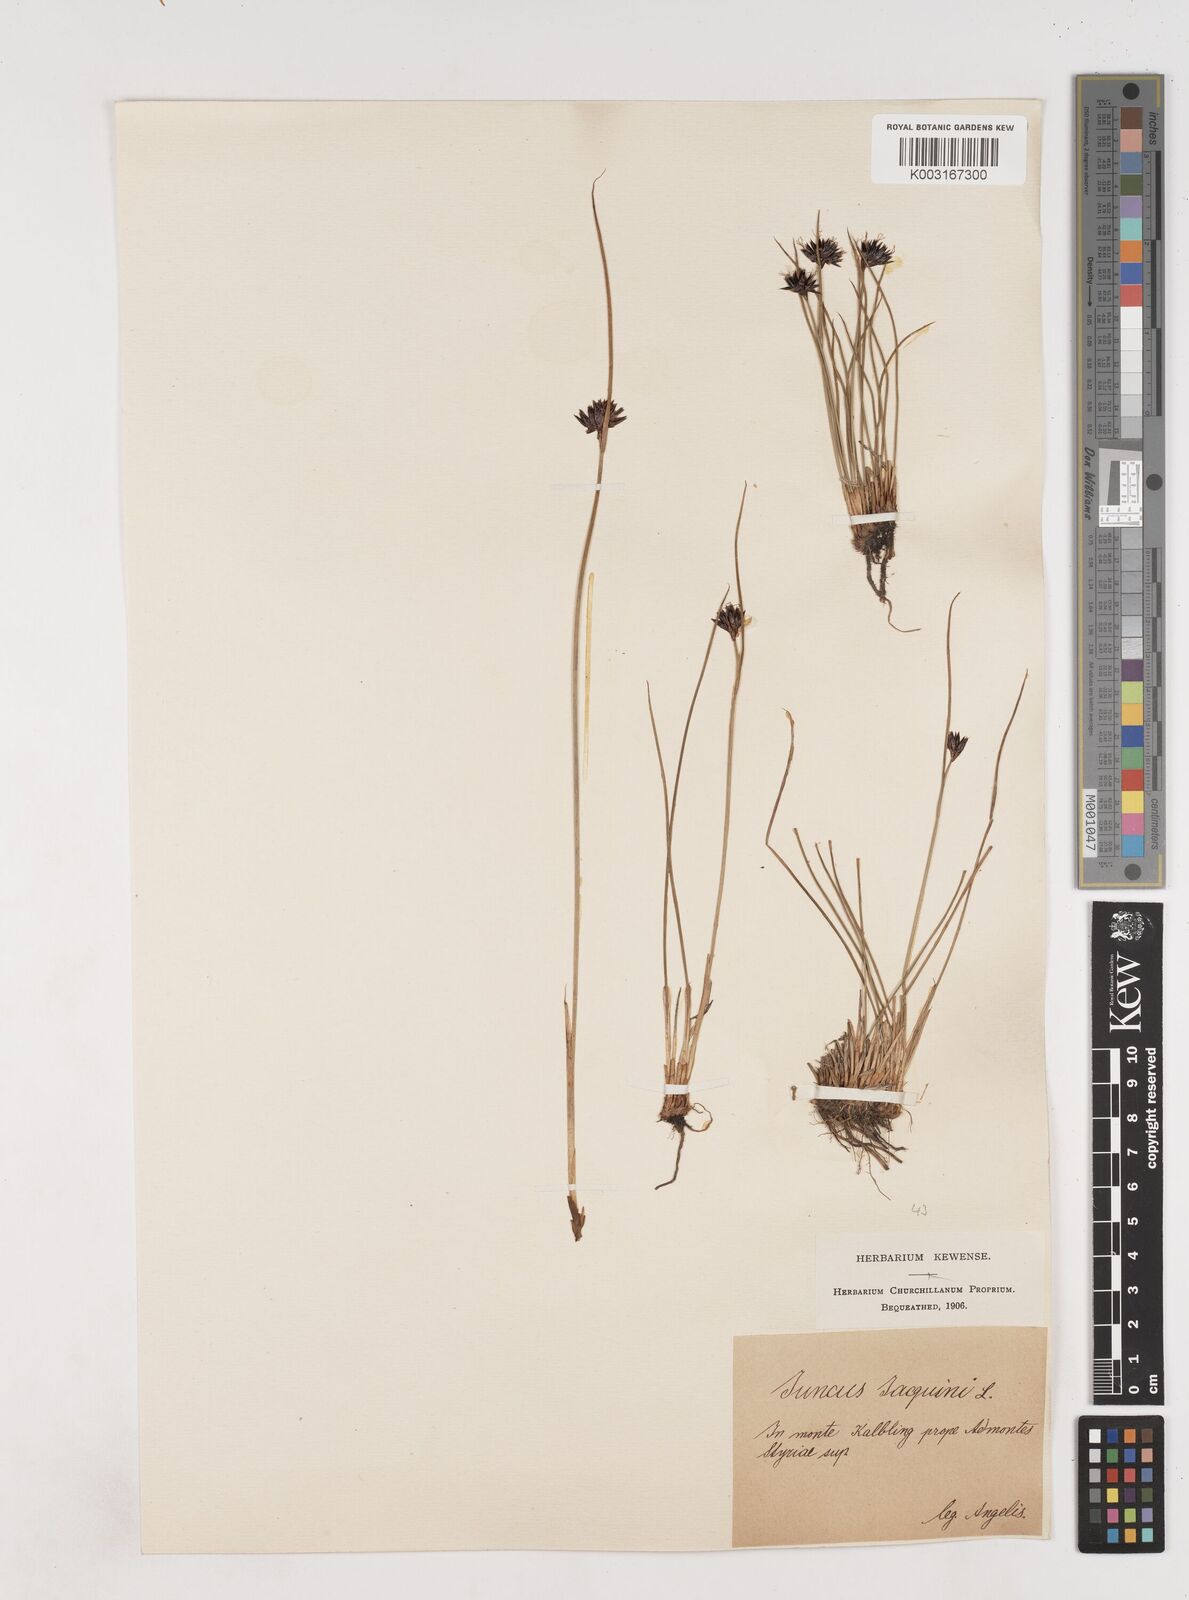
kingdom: Plantae
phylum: Tracheophyta
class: Liliopsida
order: Poales
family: Juncaceae
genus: Juncus
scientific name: Juncus jacquinii
